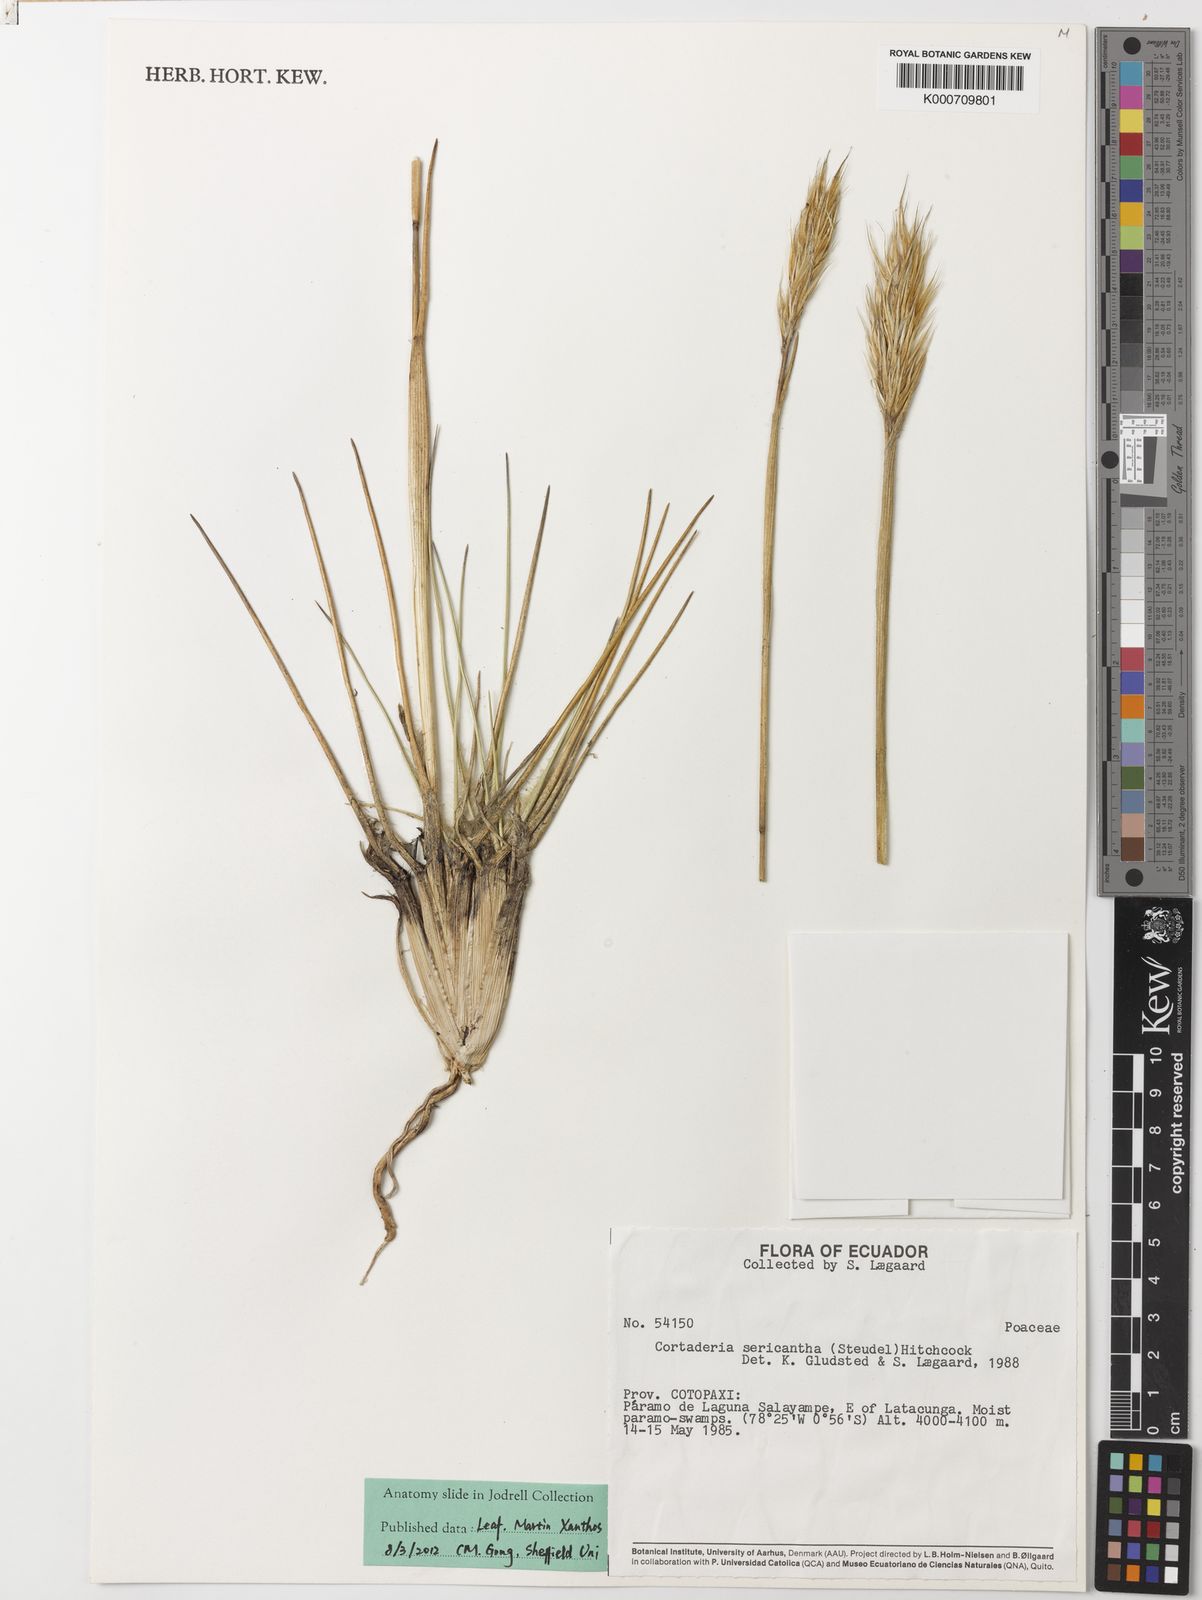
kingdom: Plantae
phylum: Tracheophyta
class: Liliopsida
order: Poales
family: Poaceae
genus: Cortaderia
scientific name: Cortaderia sericantha
